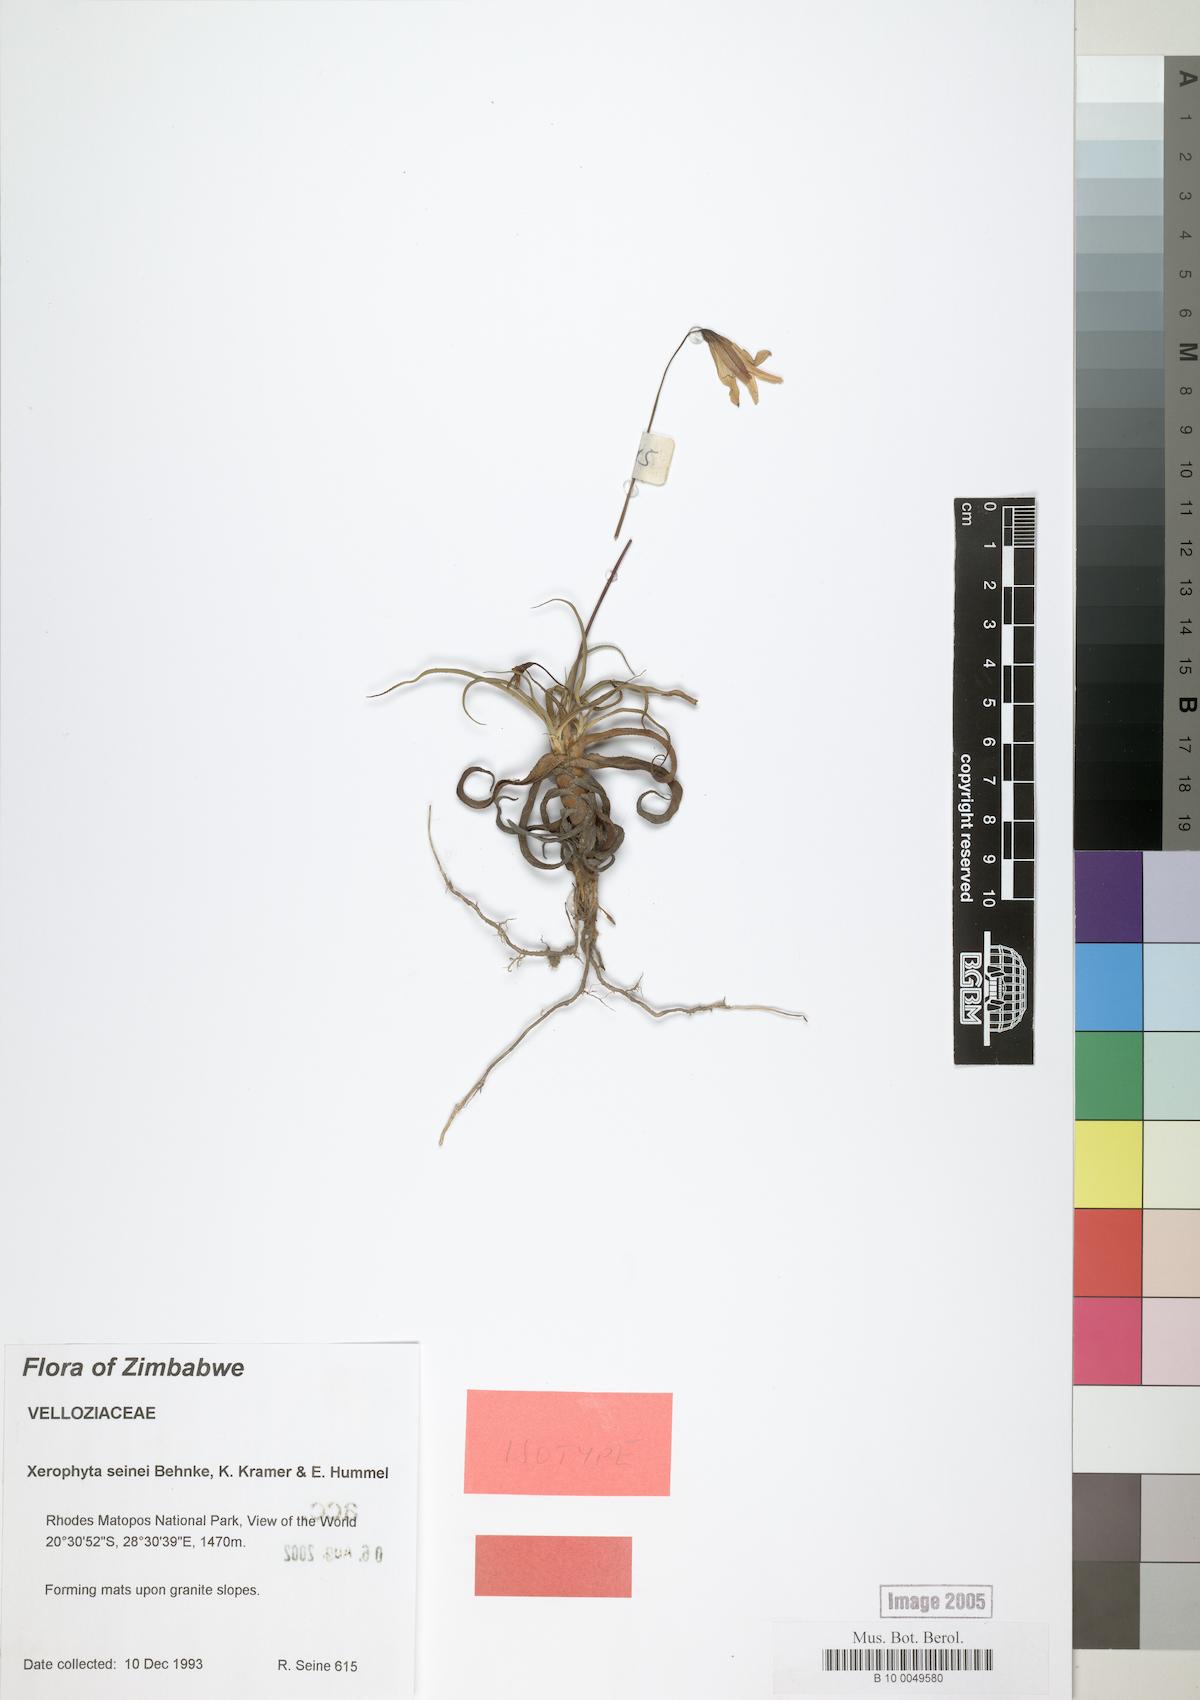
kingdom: Plantae
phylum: Tracheophyta
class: Liliopsida
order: Pandanales
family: Velloziaceae
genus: Xerophyta
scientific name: Xerophyta seinei
